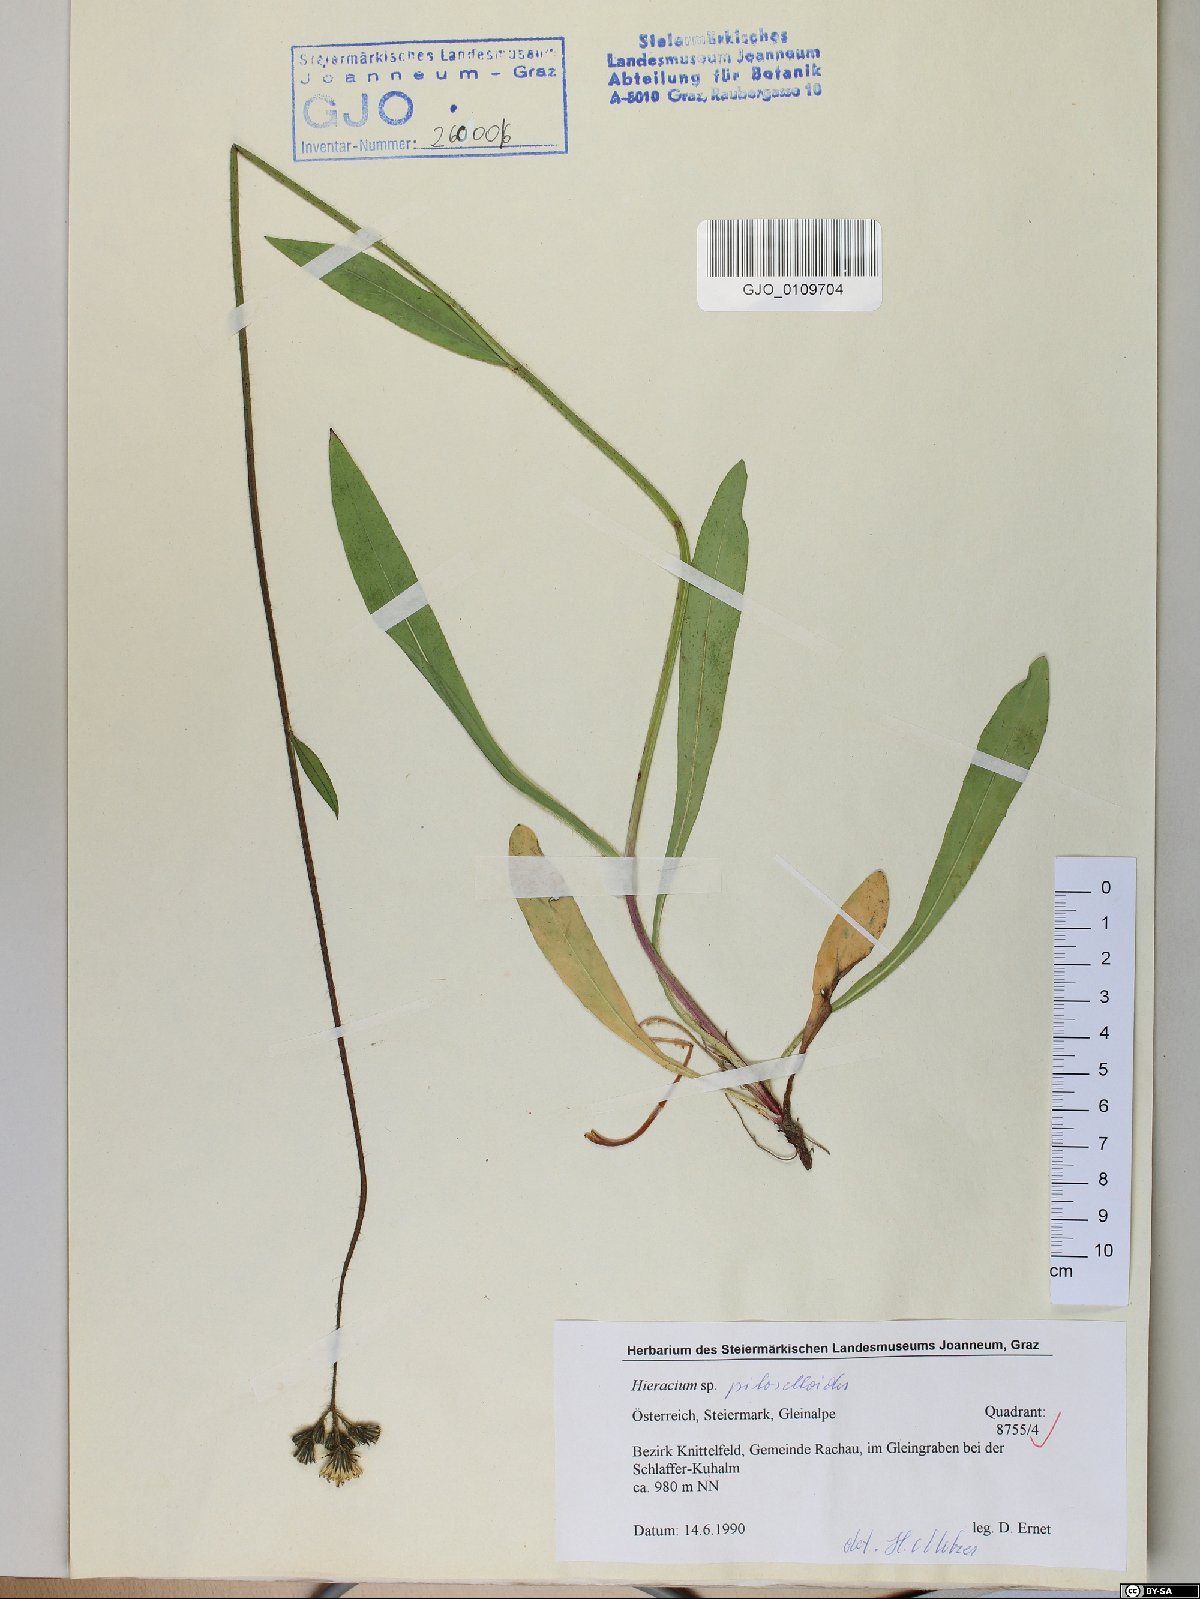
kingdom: Plantae
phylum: Tracheophyta
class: Magnoliopsida
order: Asterales
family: Asteraceae
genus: Pilosella
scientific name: Pilosella piloselloides
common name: Glaucous king-devil
